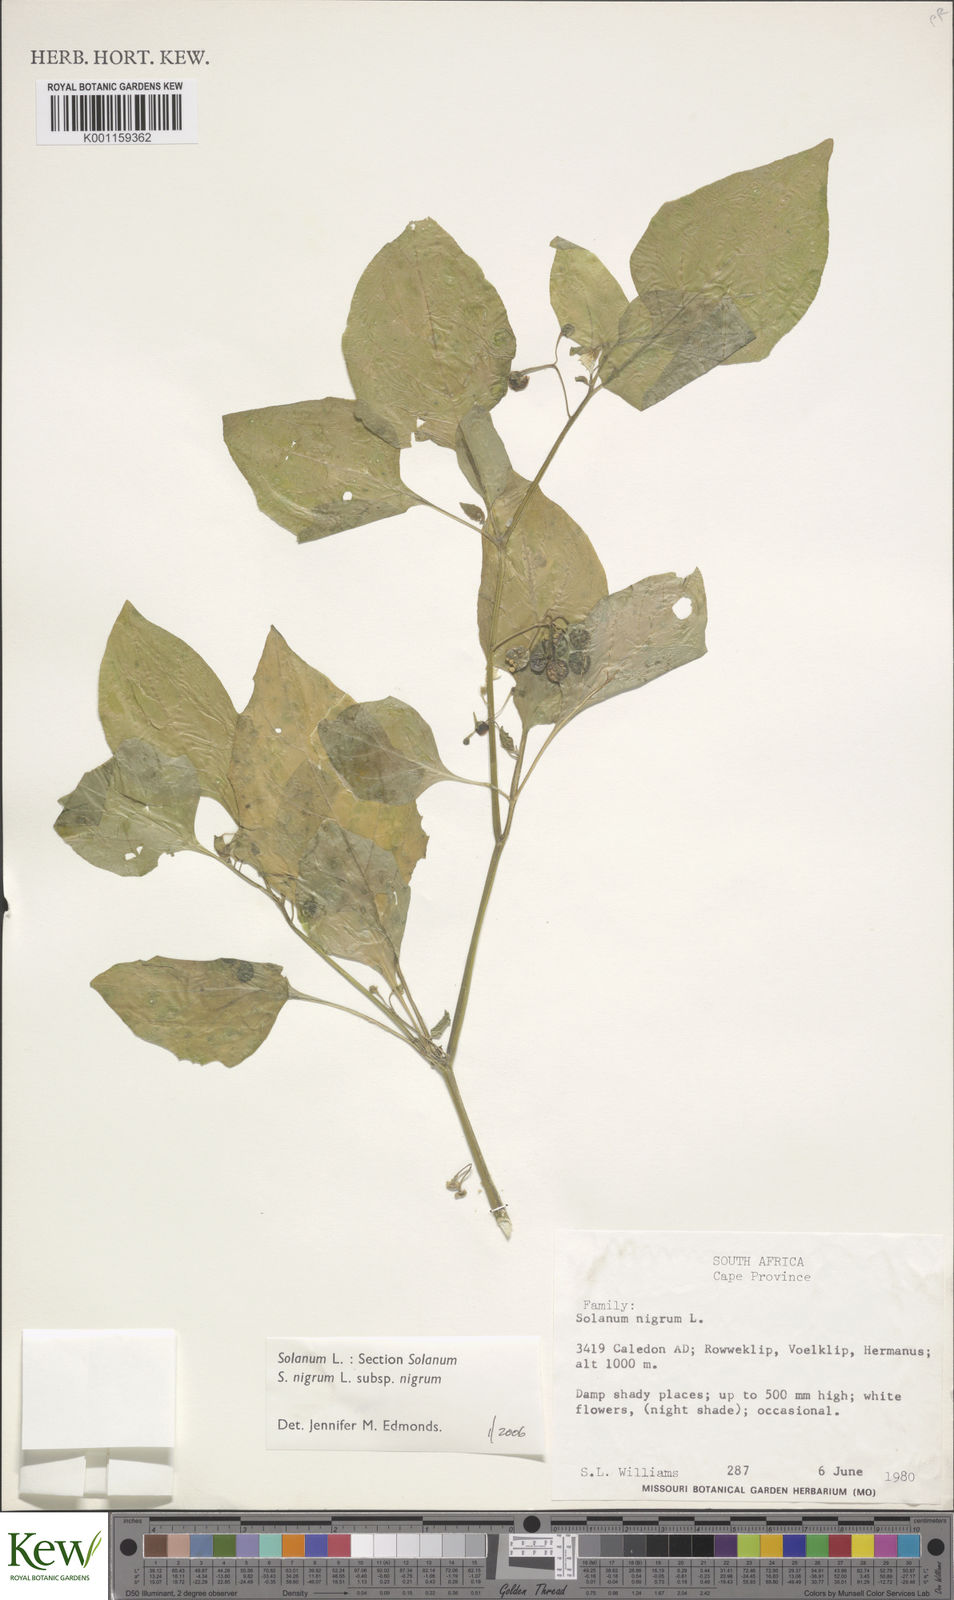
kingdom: Plantae
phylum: Tracheophyta
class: Magnoliopsida
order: Solanales
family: Solanaceae
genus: Solanum
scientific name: Solanum scabrum
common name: Garden-huckleberry
